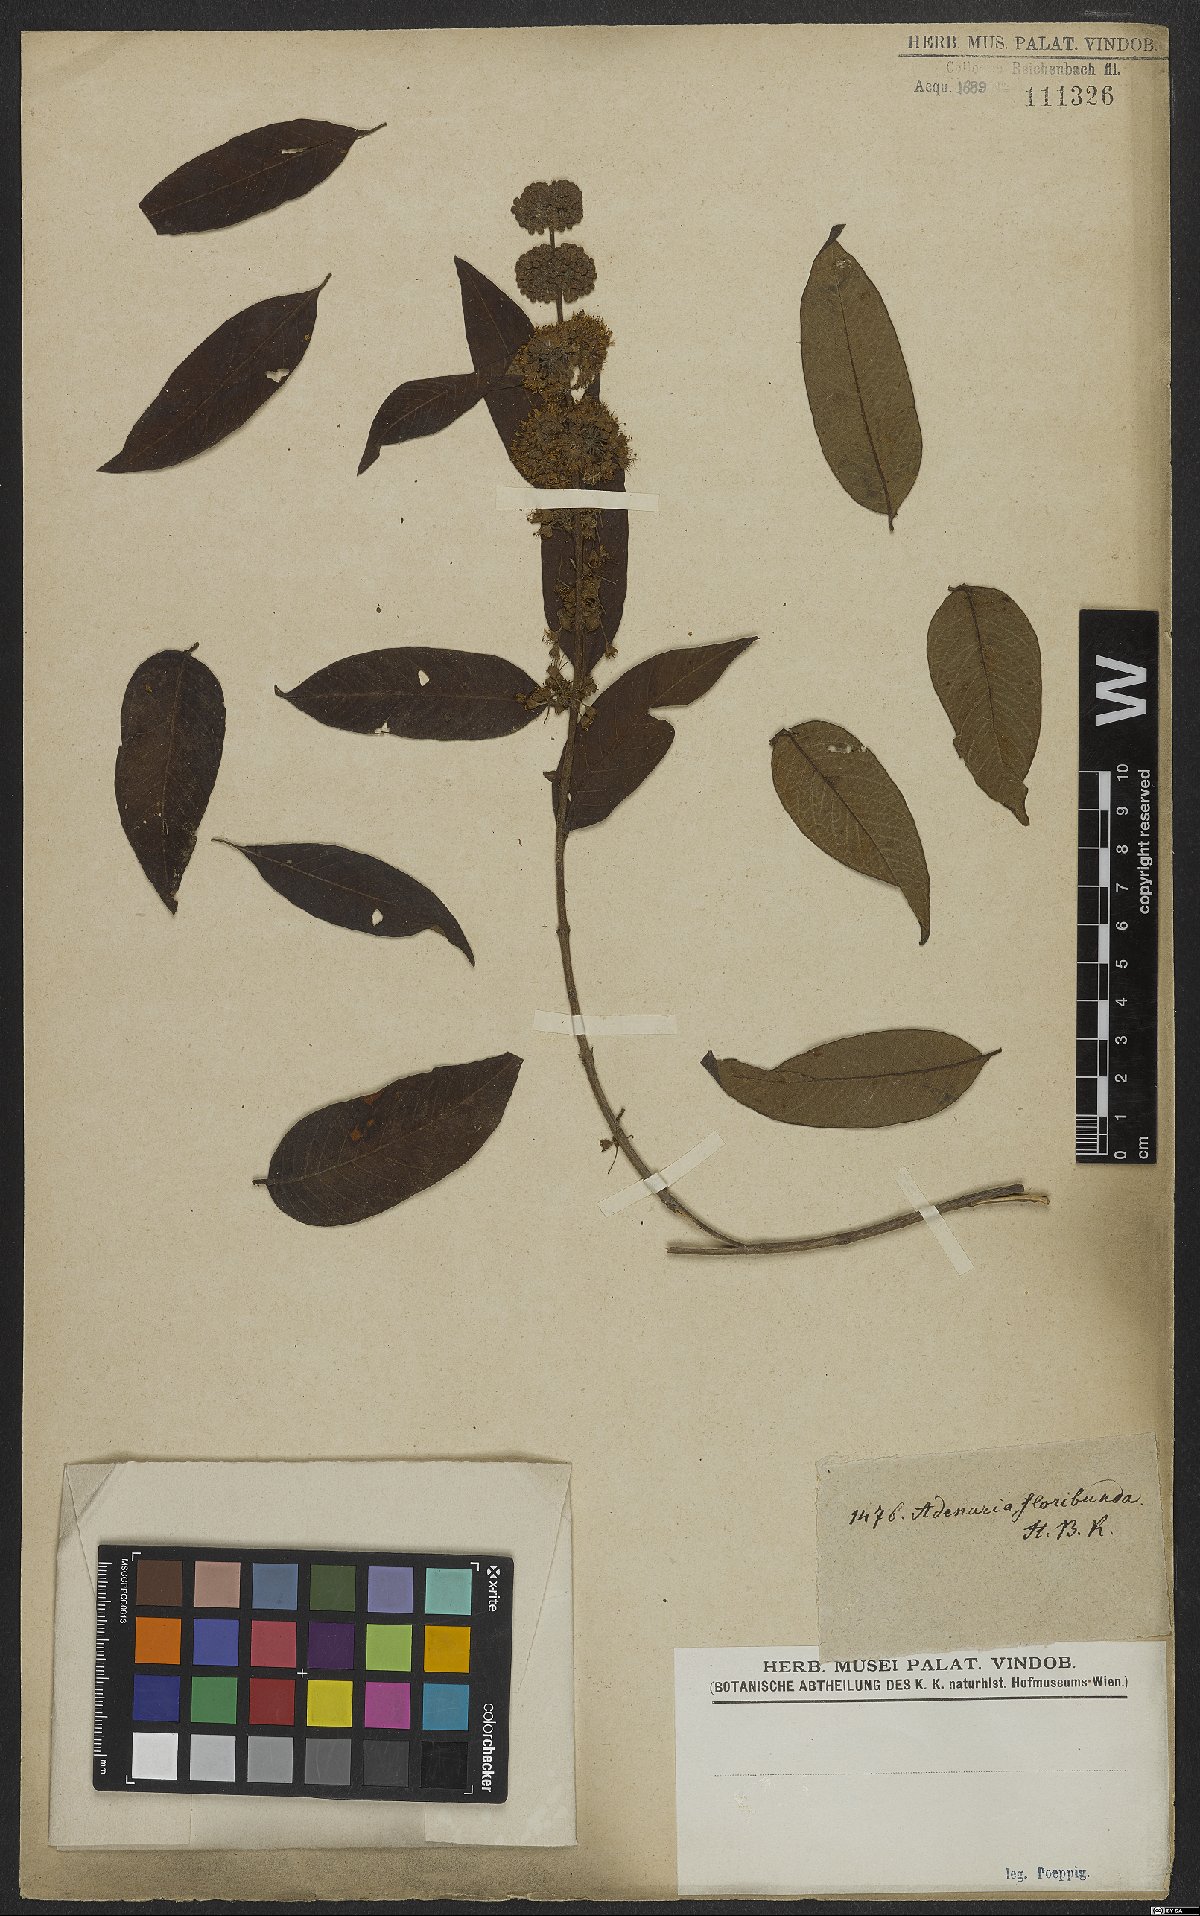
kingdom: Plantae
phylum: Tracheophyta
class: Magnoliopsida
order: Myrtales
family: Lythraceae
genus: Adenaria
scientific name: Adenaria floribunda
